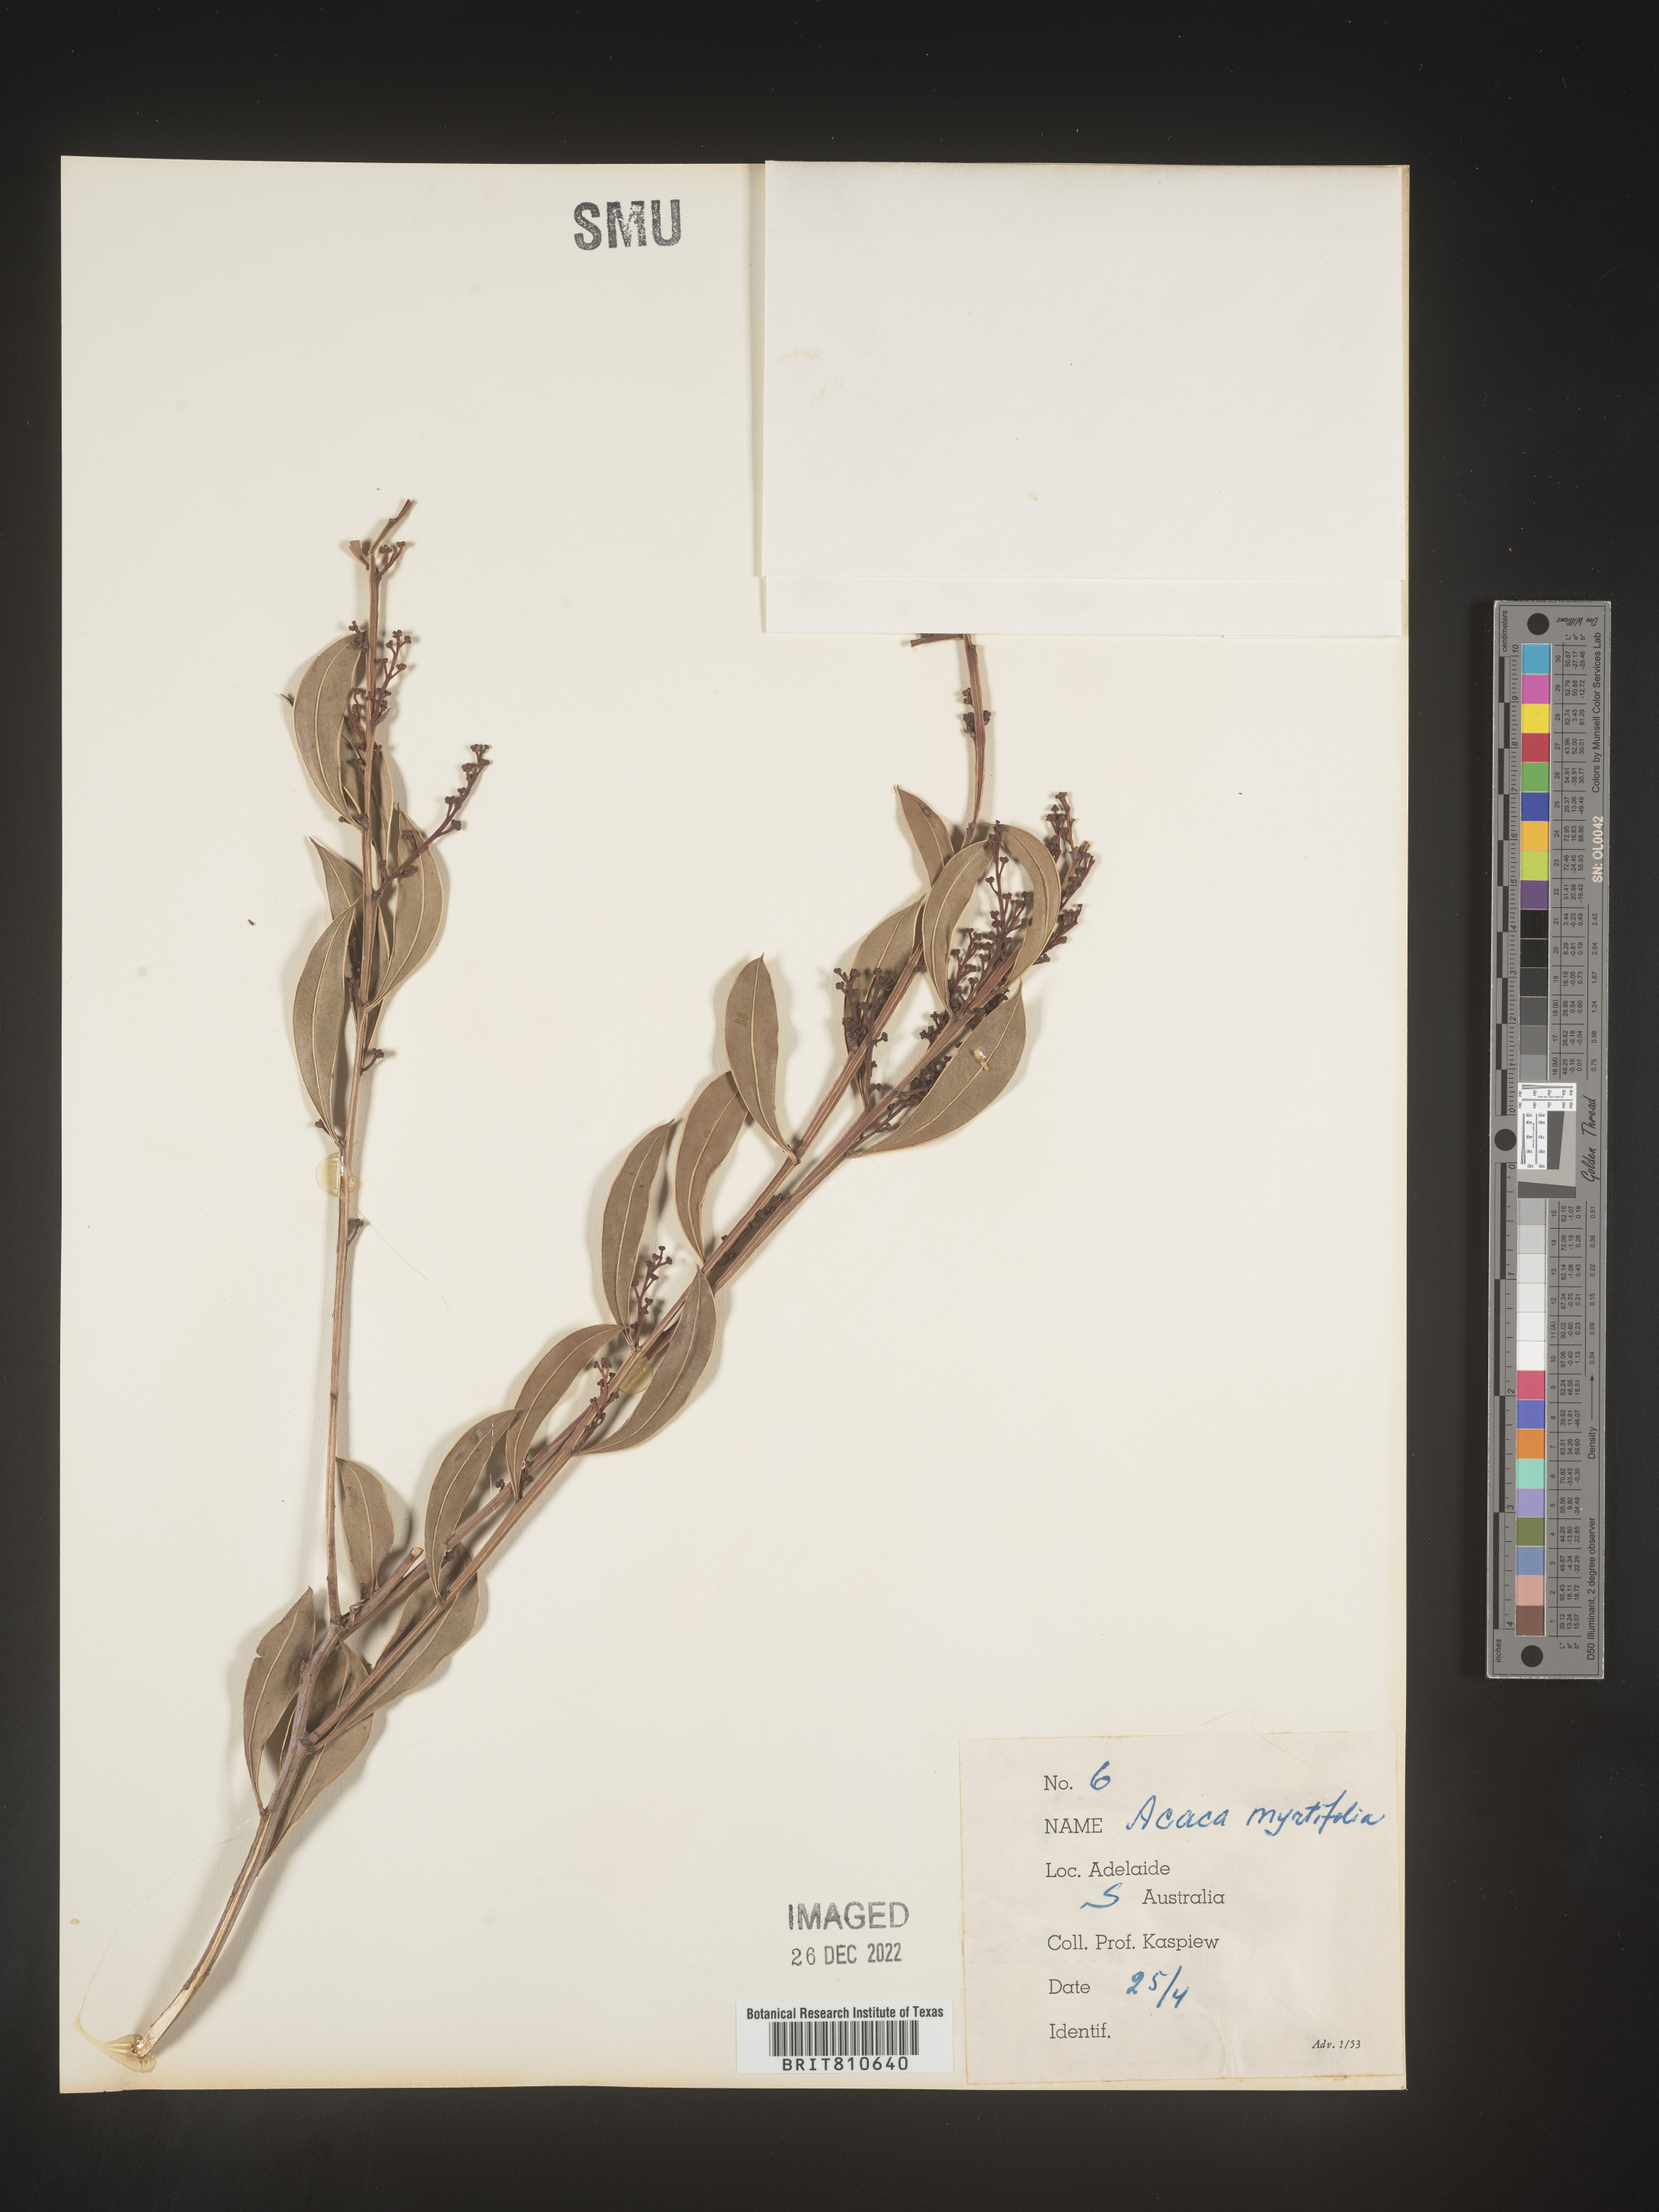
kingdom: Plantae
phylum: Tracheophyta
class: Magnoliopsida
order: Fabales
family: Fabaceae
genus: Acacia
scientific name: Acacia
